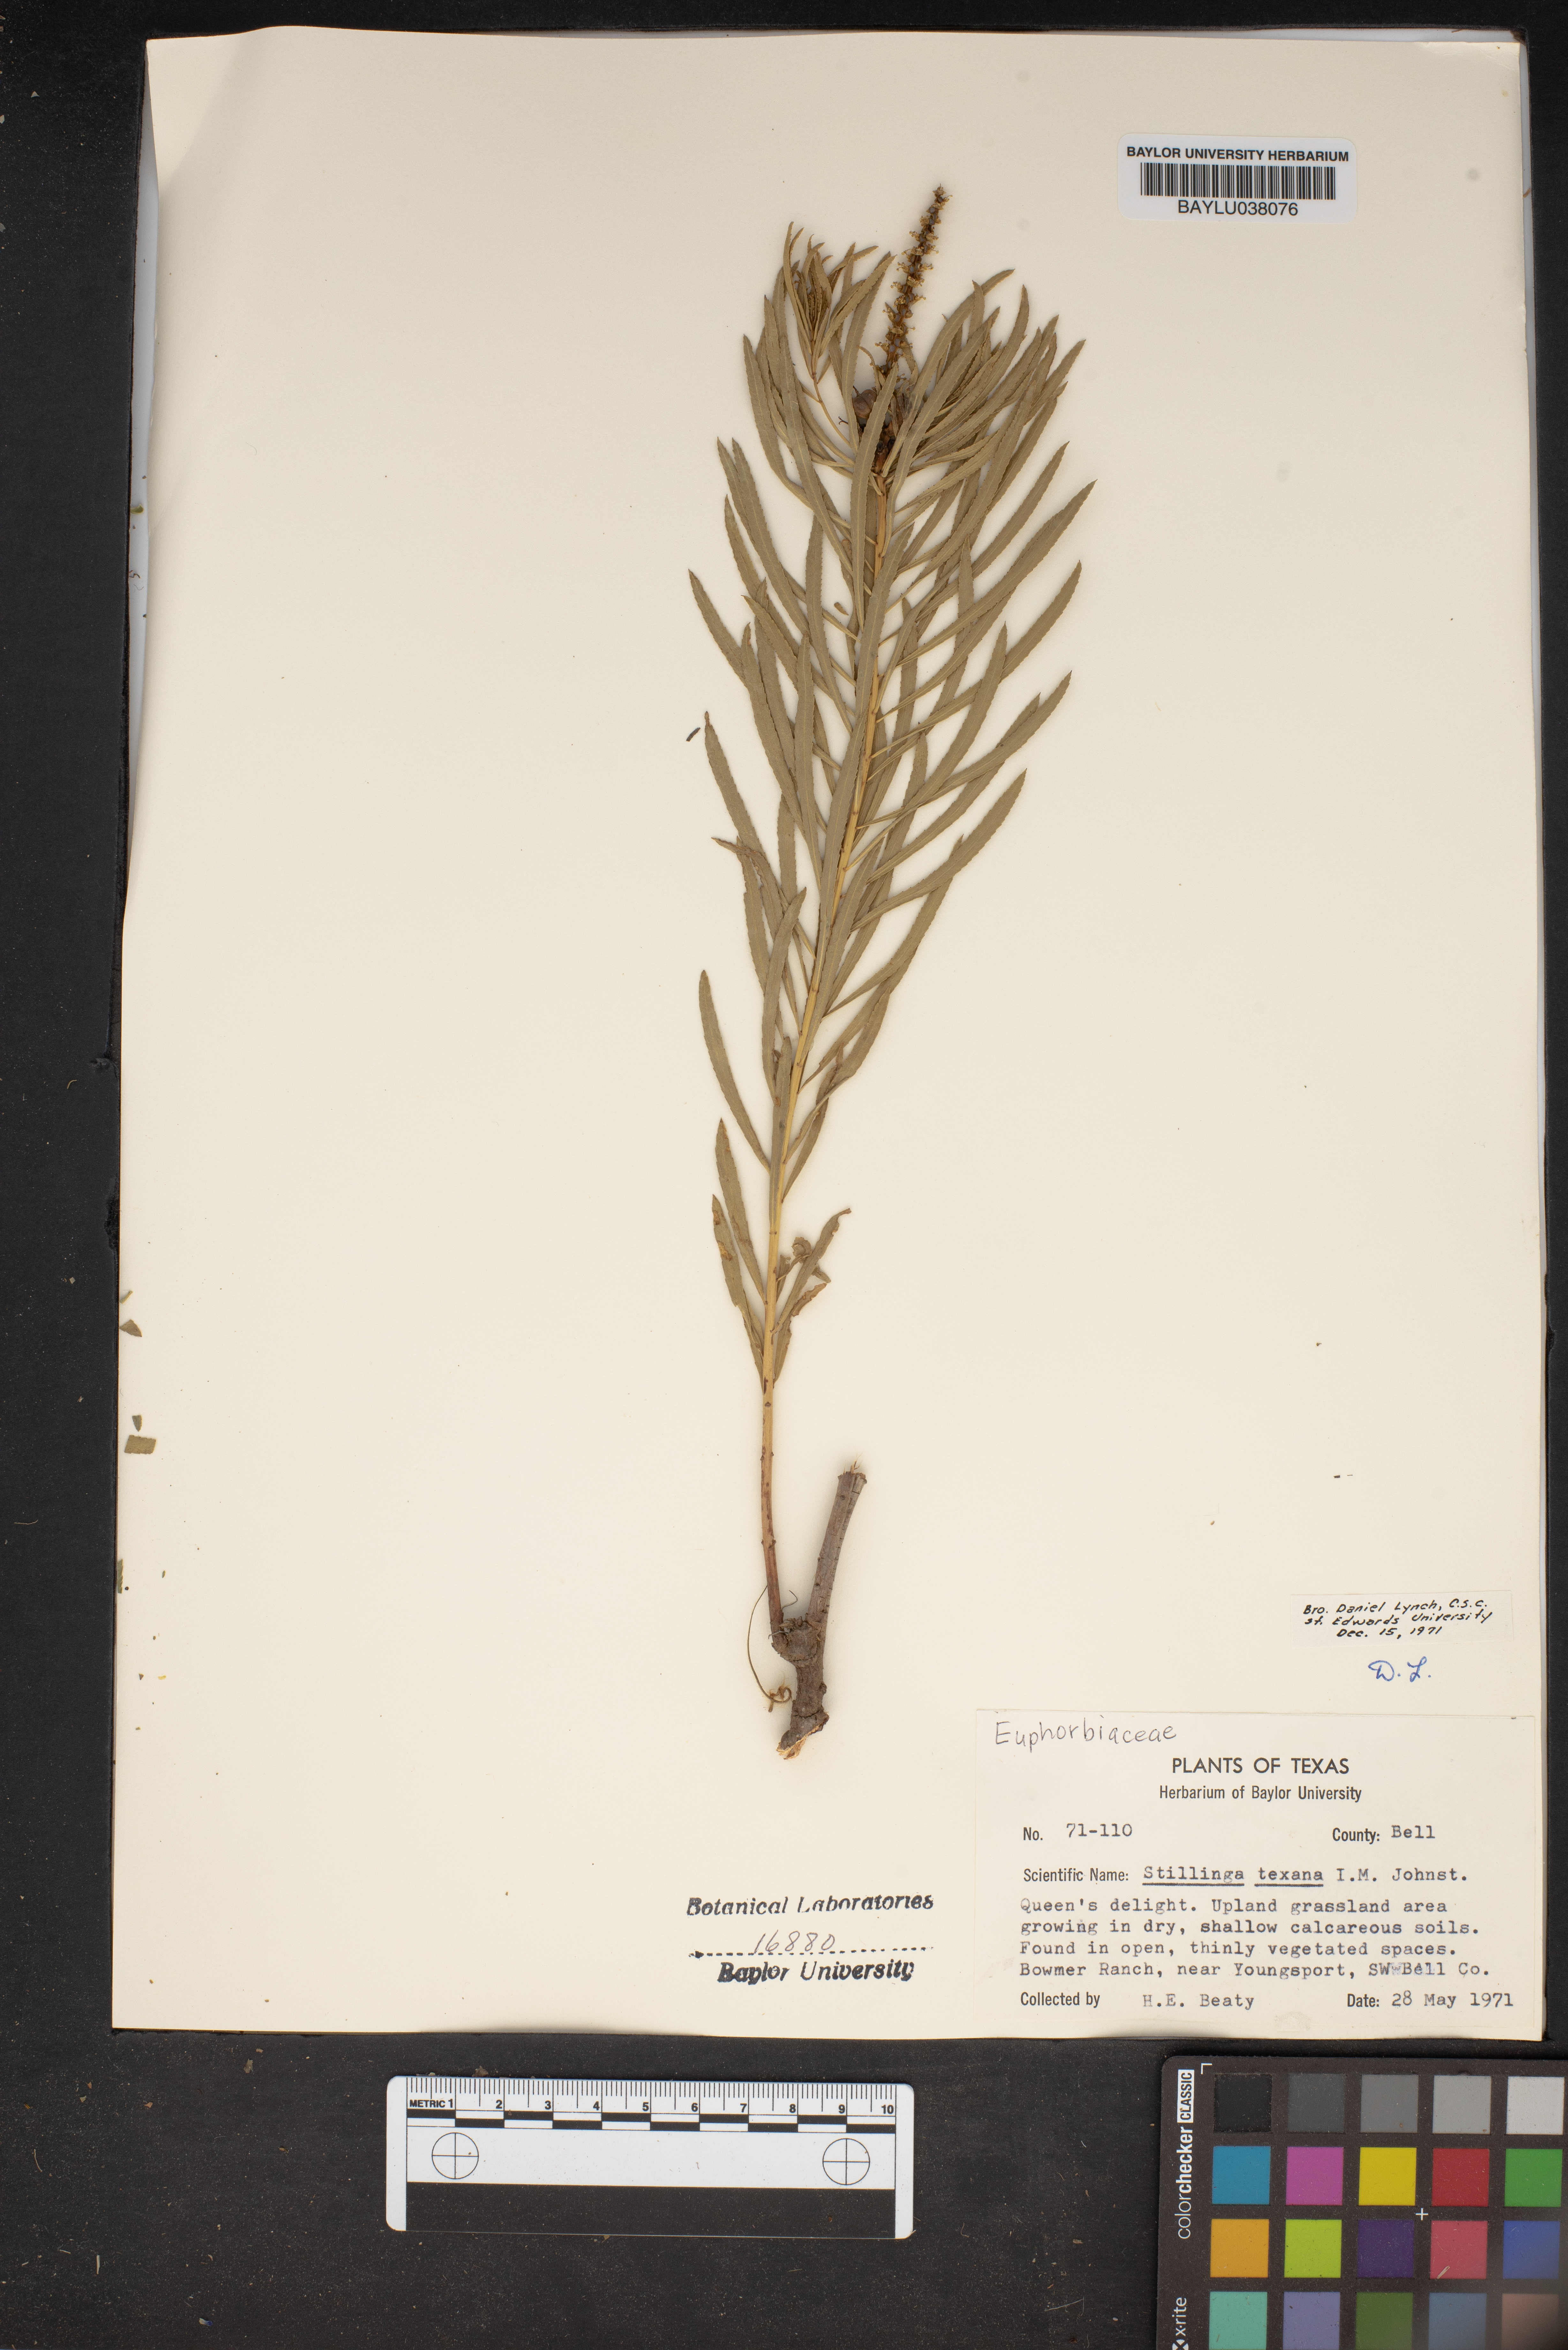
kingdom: Plantae
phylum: Tracheophyta
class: Magnoliopsida
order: Malpighiales
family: Euphorbiaceae
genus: Stillingia
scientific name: Stillingia texana
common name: Texas stillingia
